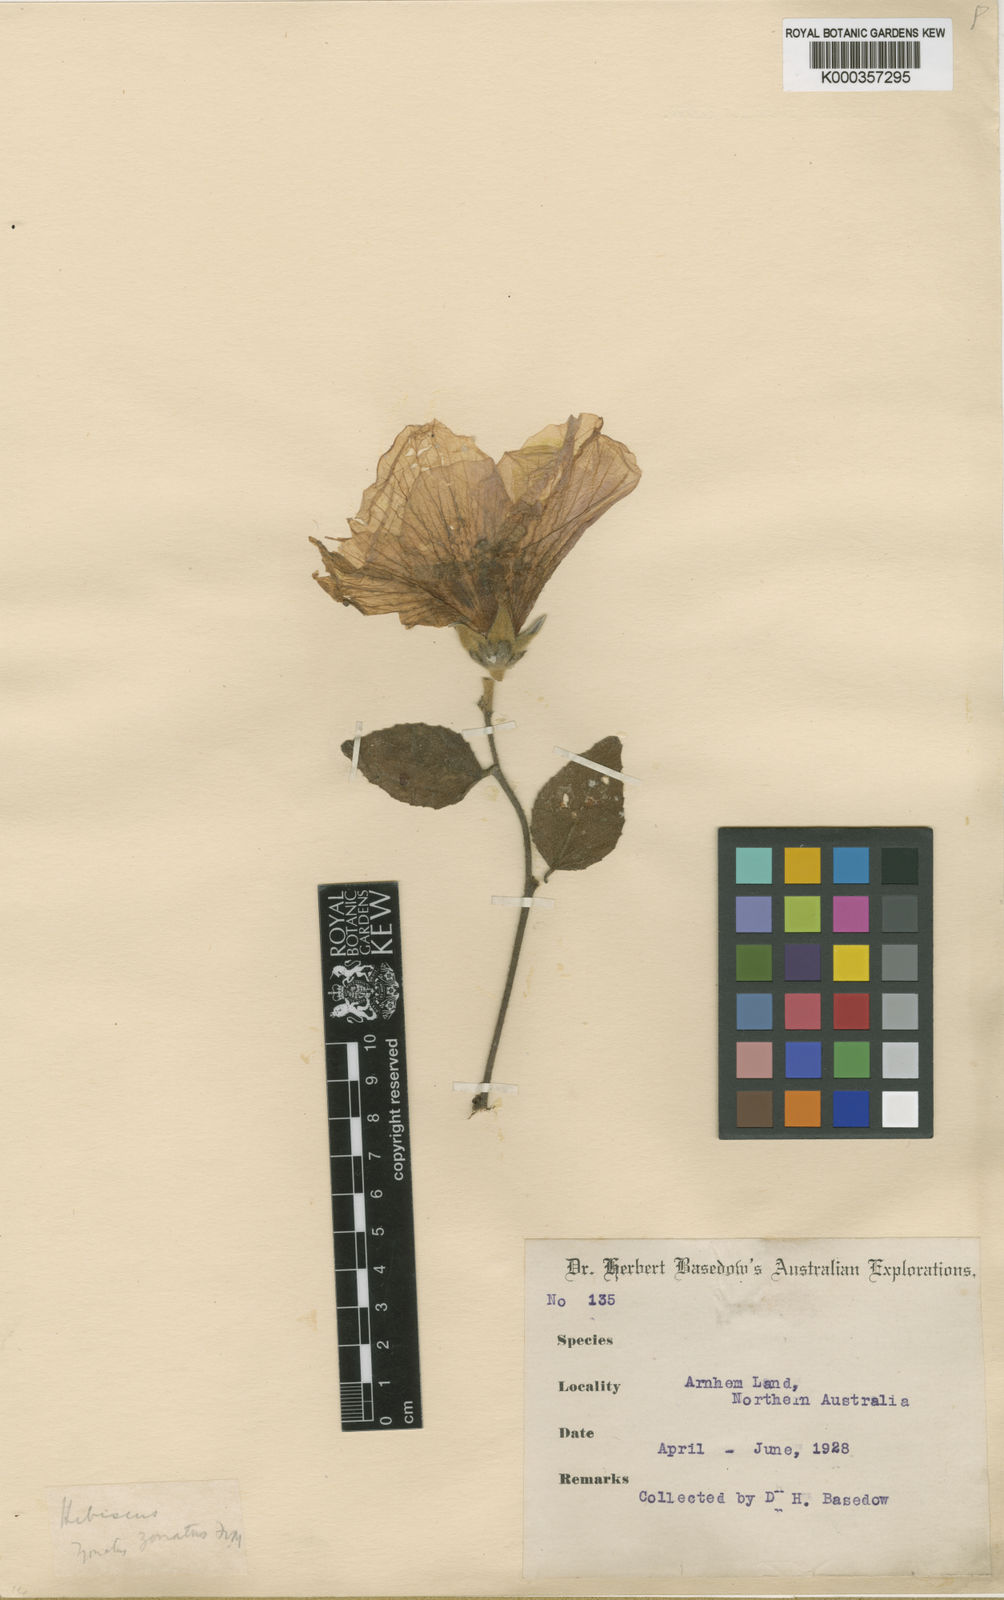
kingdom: Plantae
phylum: Tracheophyta
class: Magnoliopsida
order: Malvales
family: Malvaceae
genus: Hibiscus
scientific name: Hibiscus zonatus
